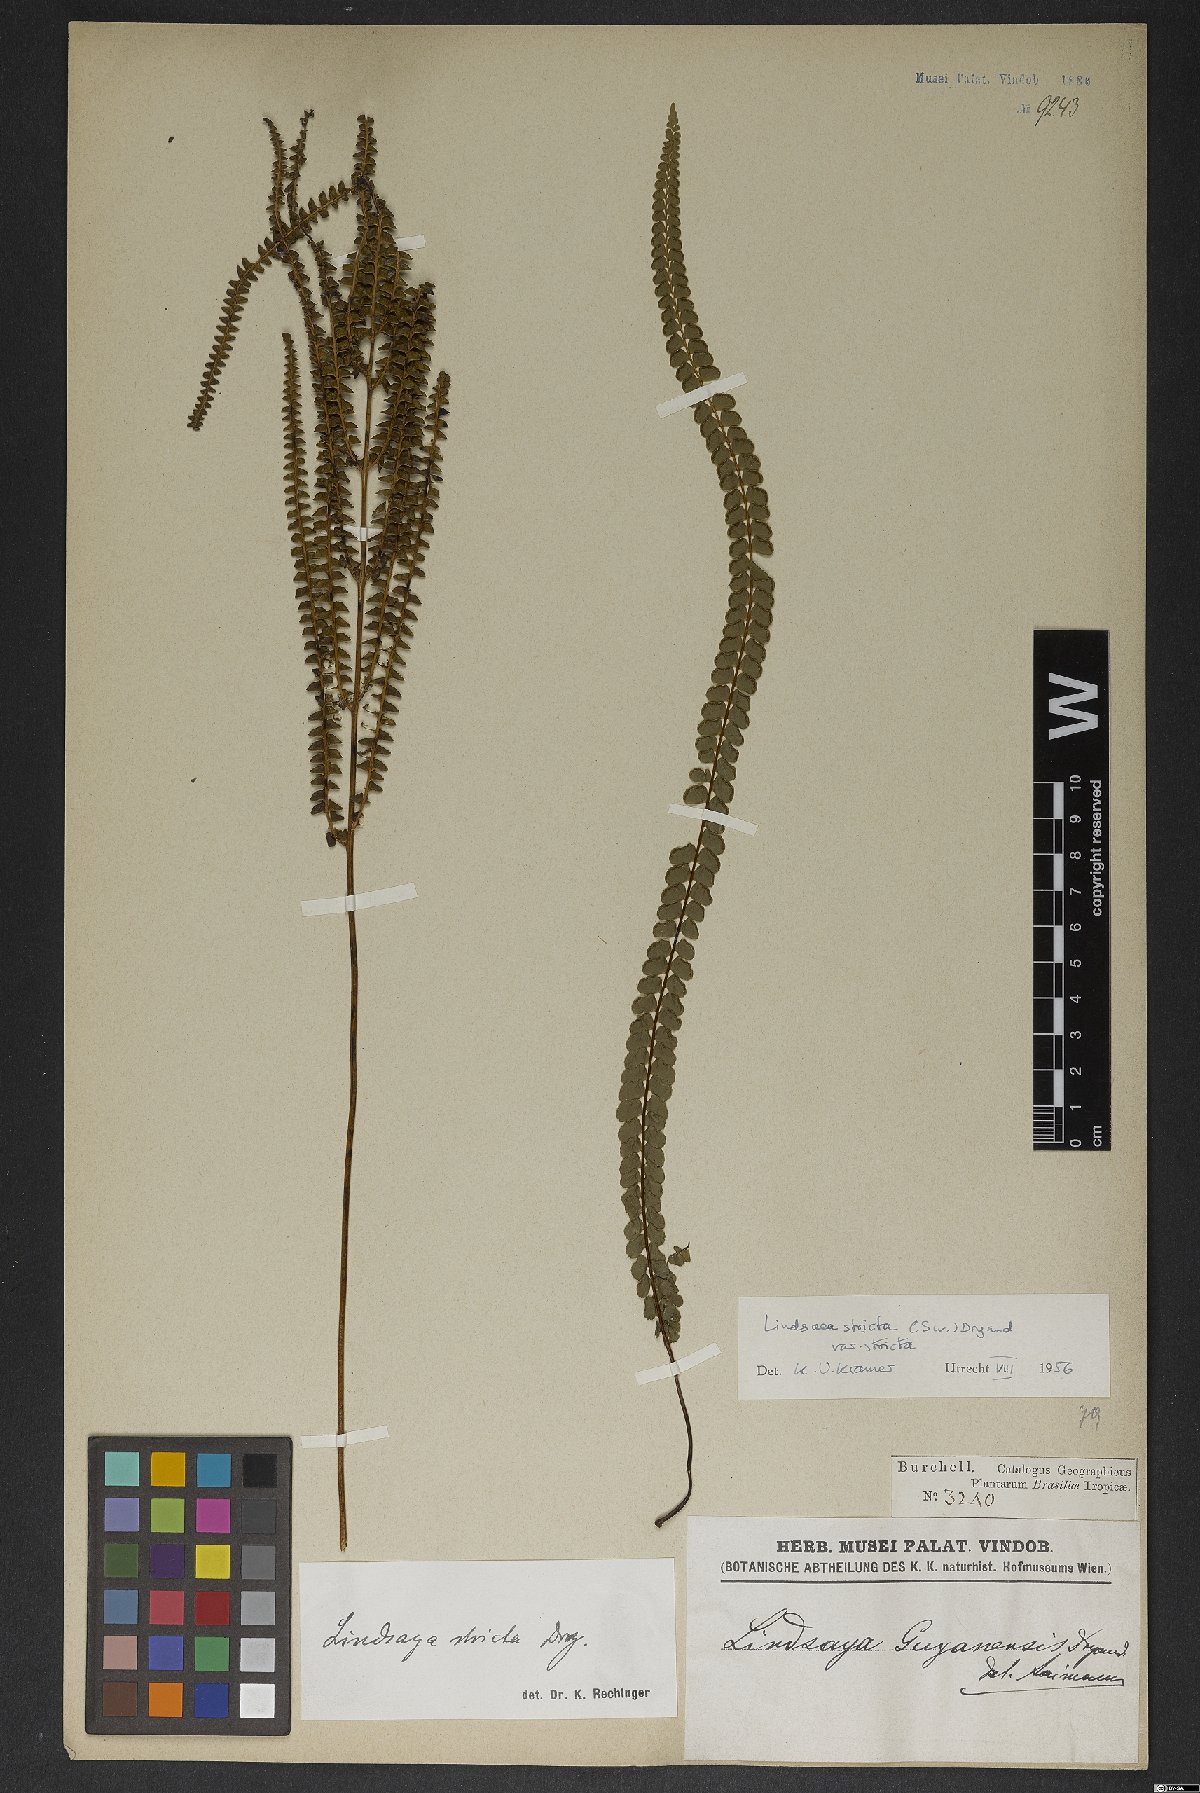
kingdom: Plantae
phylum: Tracheophyta
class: Polypodiopsida
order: Polypodiales
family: Lindsaeaceae
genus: Lindsaea
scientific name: Lindsaea stricta
